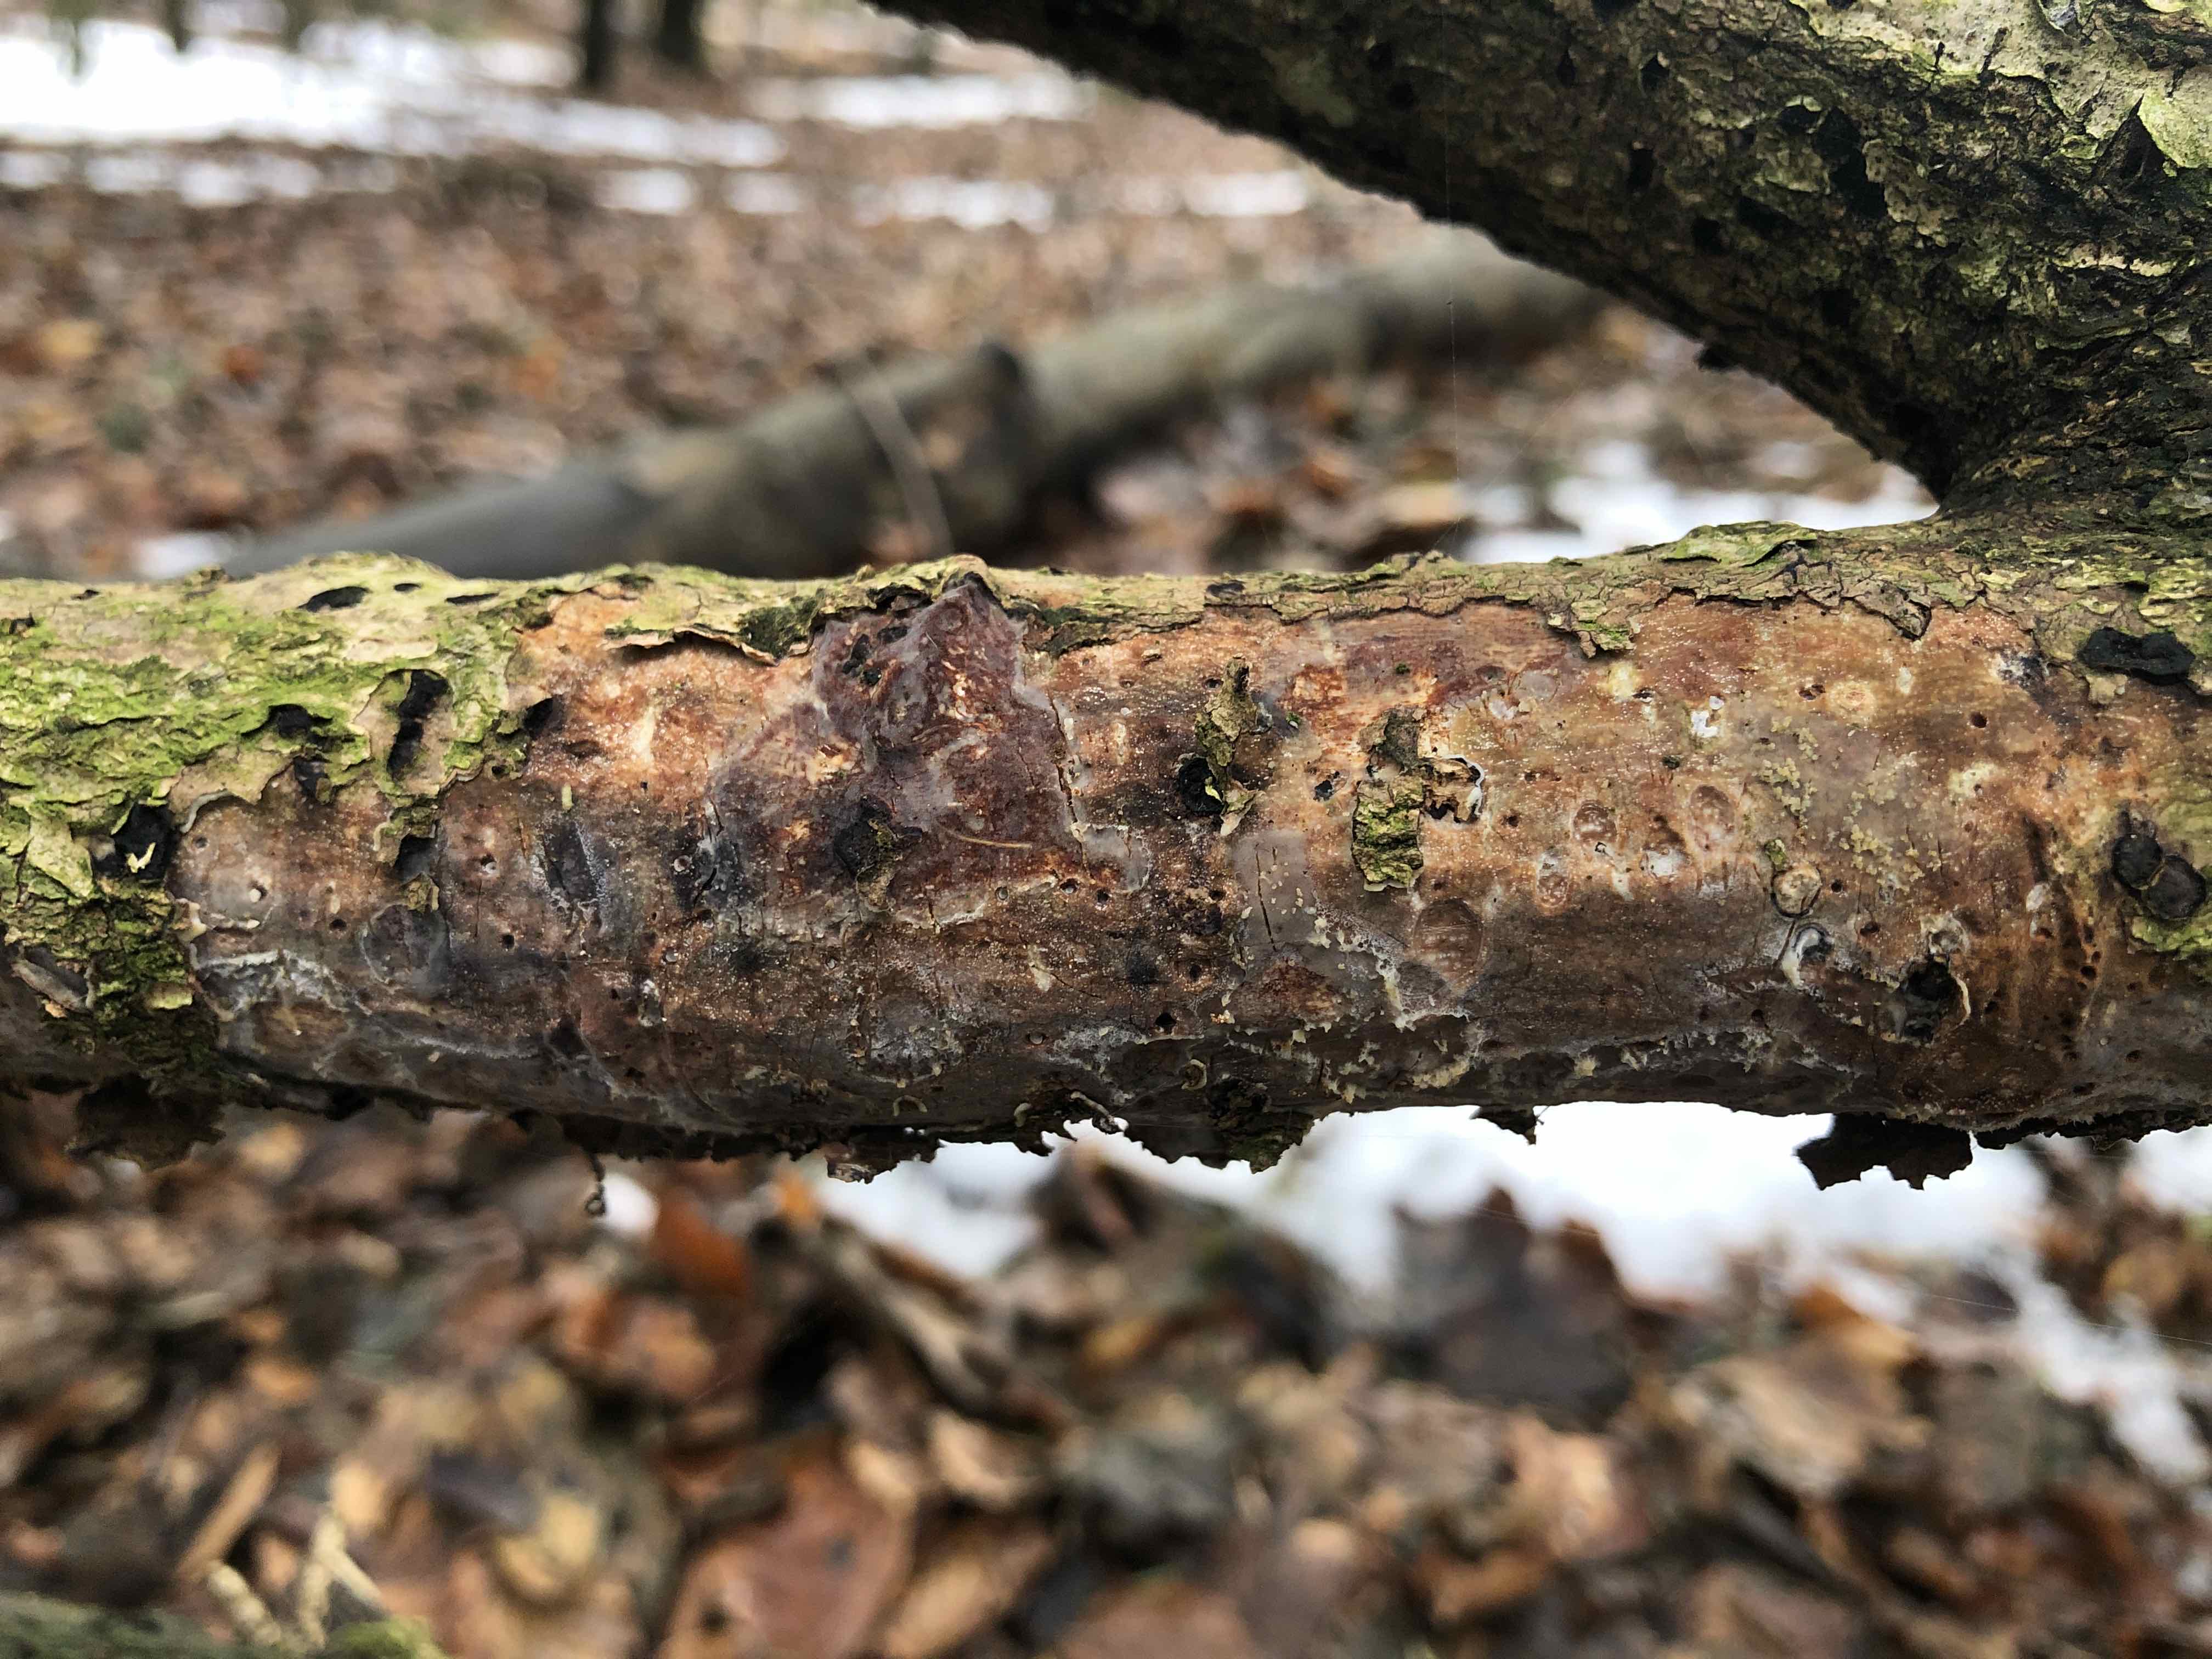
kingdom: Fungi
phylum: Basidiomycota
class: Agaricomycetes
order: Corticiales
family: Vuilleminiaceae
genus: Vuilleminia
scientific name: Vuilleminia comedens
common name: almindelig barksprænger
